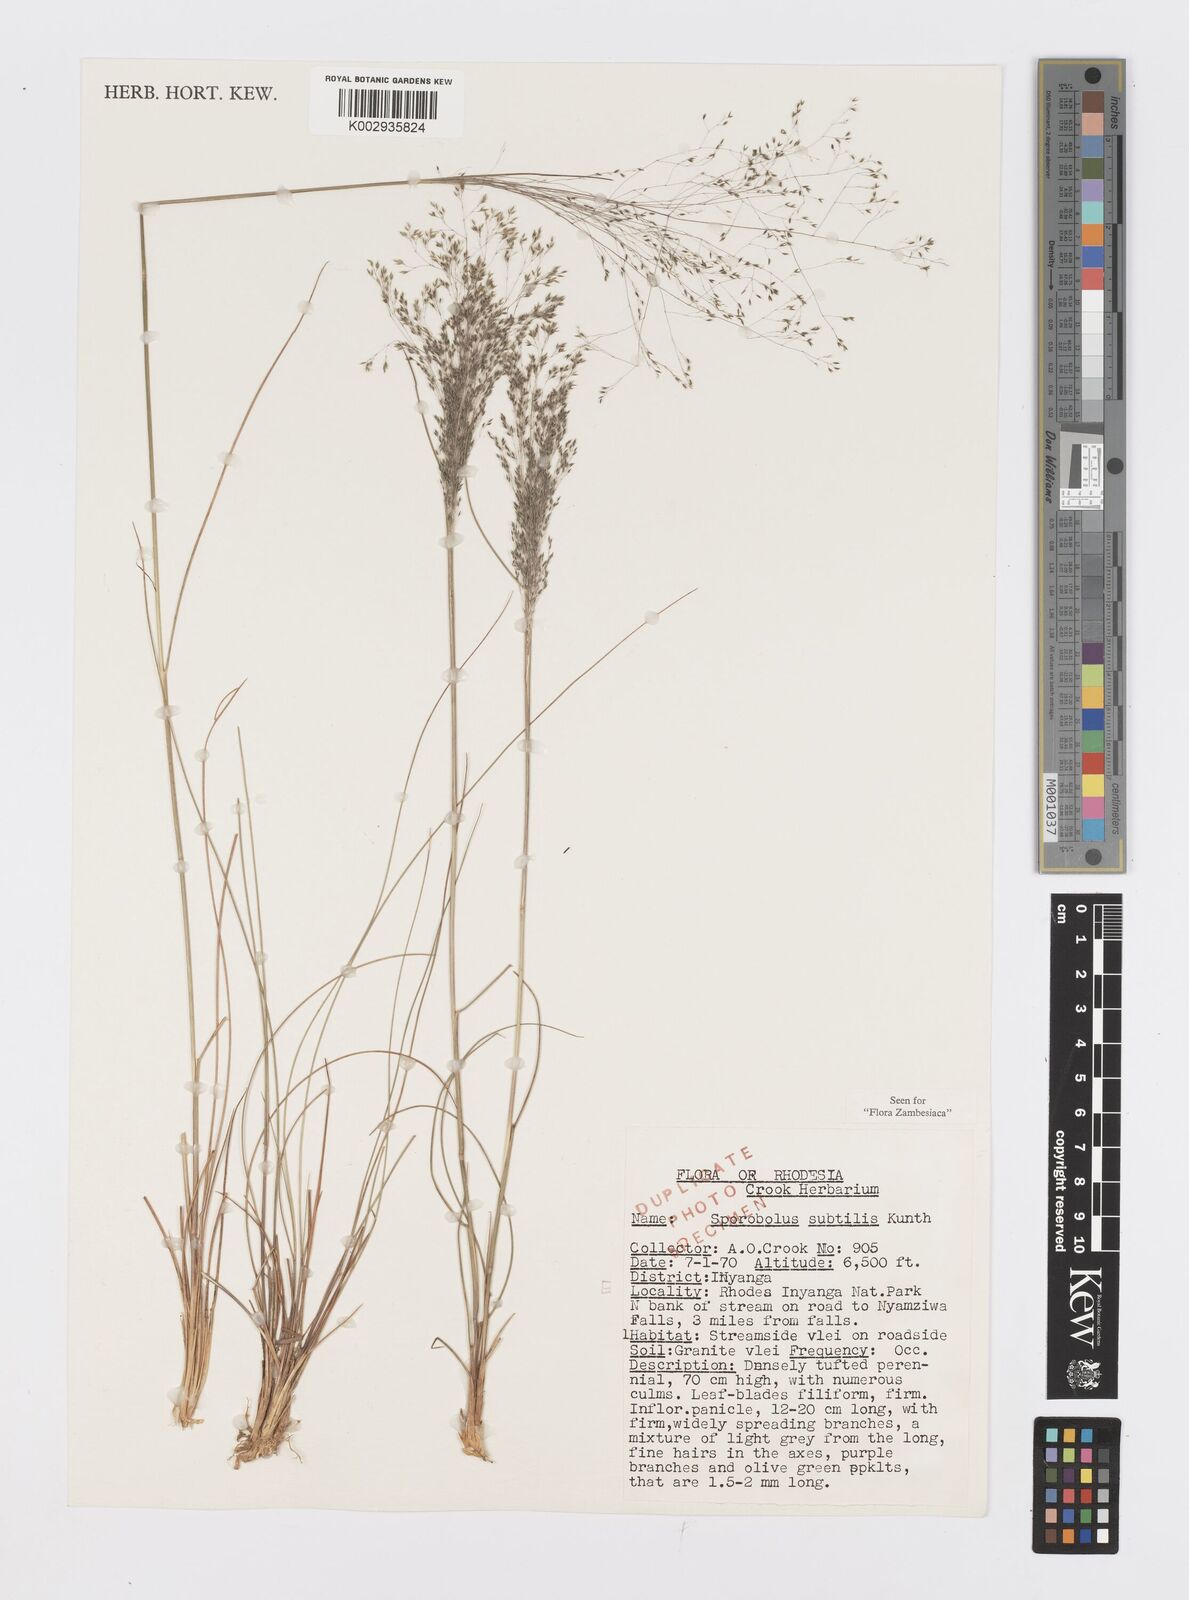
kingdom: Plantae
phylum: Tracheophyta
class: Liliopsida
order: Poales
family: Poaceae
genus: Sporobolus
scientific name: Sporobolus subtilis
